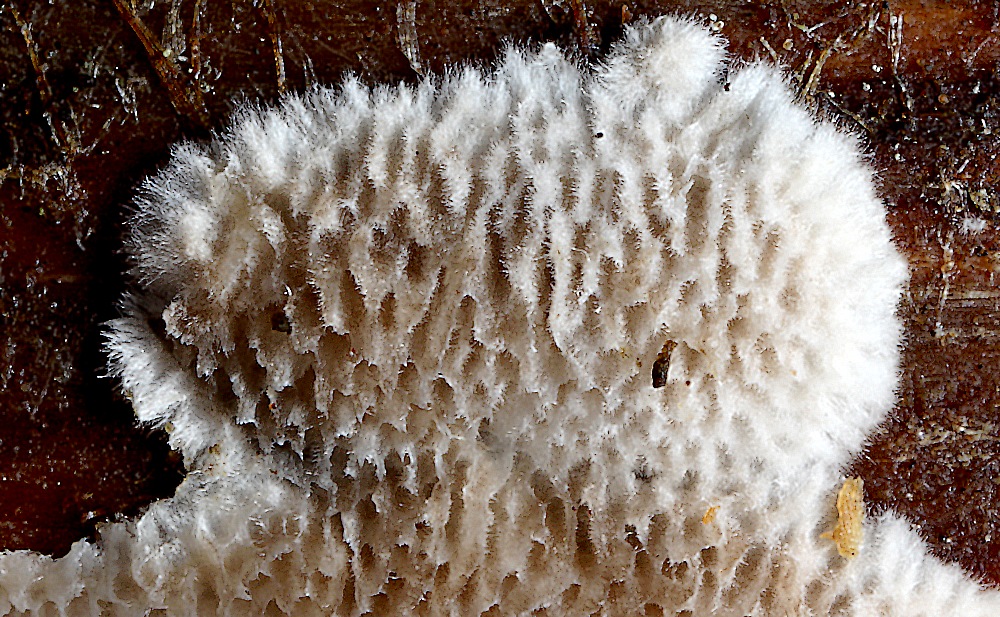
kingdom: Fungi
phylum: Basidiomycota
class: Agaricomycetes
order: Polyporales
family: Gelatoporiaceae
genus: Cinereomyces
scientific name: Cinereomyces lindbladii
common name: almindelig gråporesvamp
